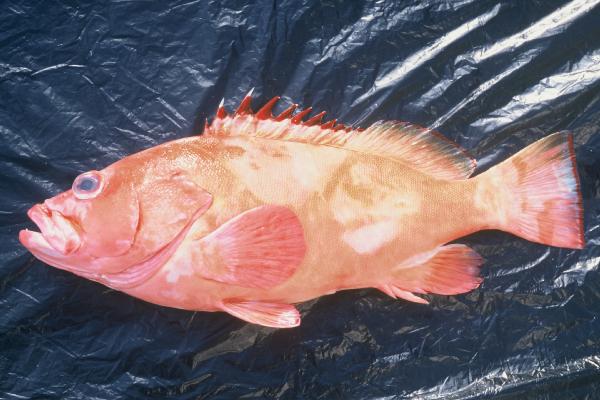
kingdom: Animalia
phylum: Chordata
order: Perciformes
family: Serranidae
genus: Epinephelus
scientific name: Epinephelus retouti
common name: Red-tipped grouper
